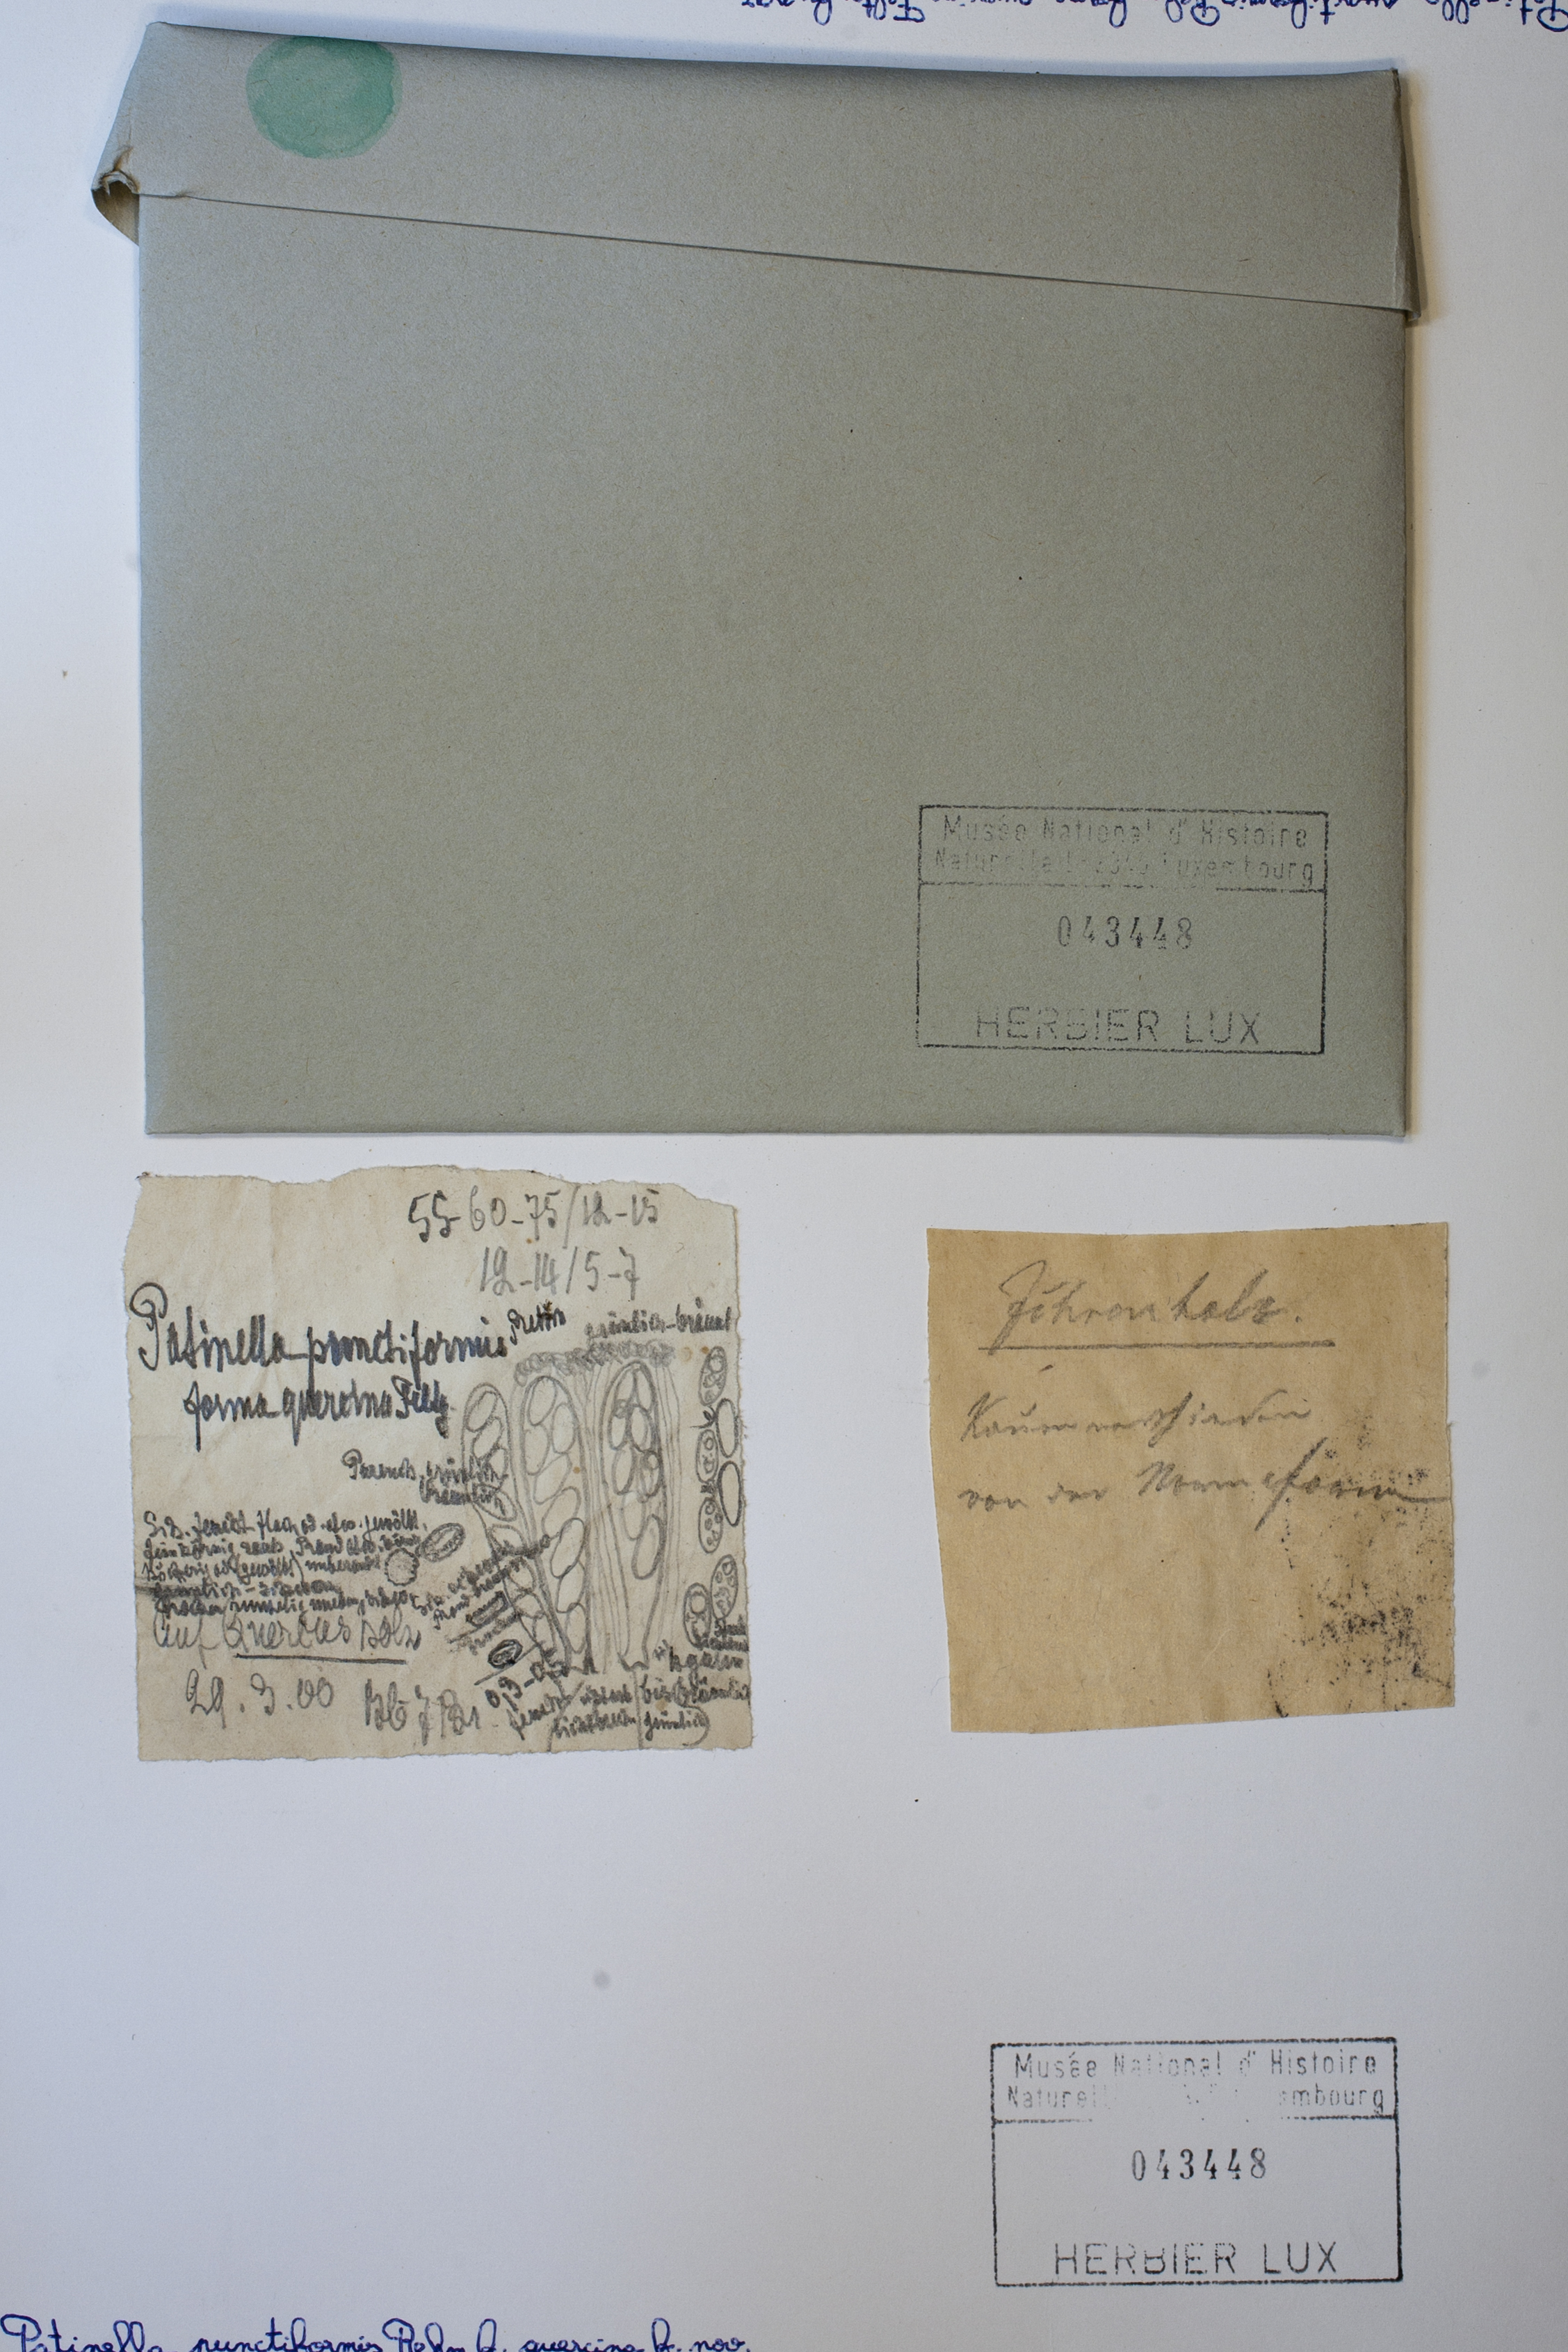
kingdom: Fungi
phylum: Ascomycota
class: Leotiomycetes
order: Helotiales
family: Dermateaceae
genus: Patinella
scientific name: Patinella punctiformis
